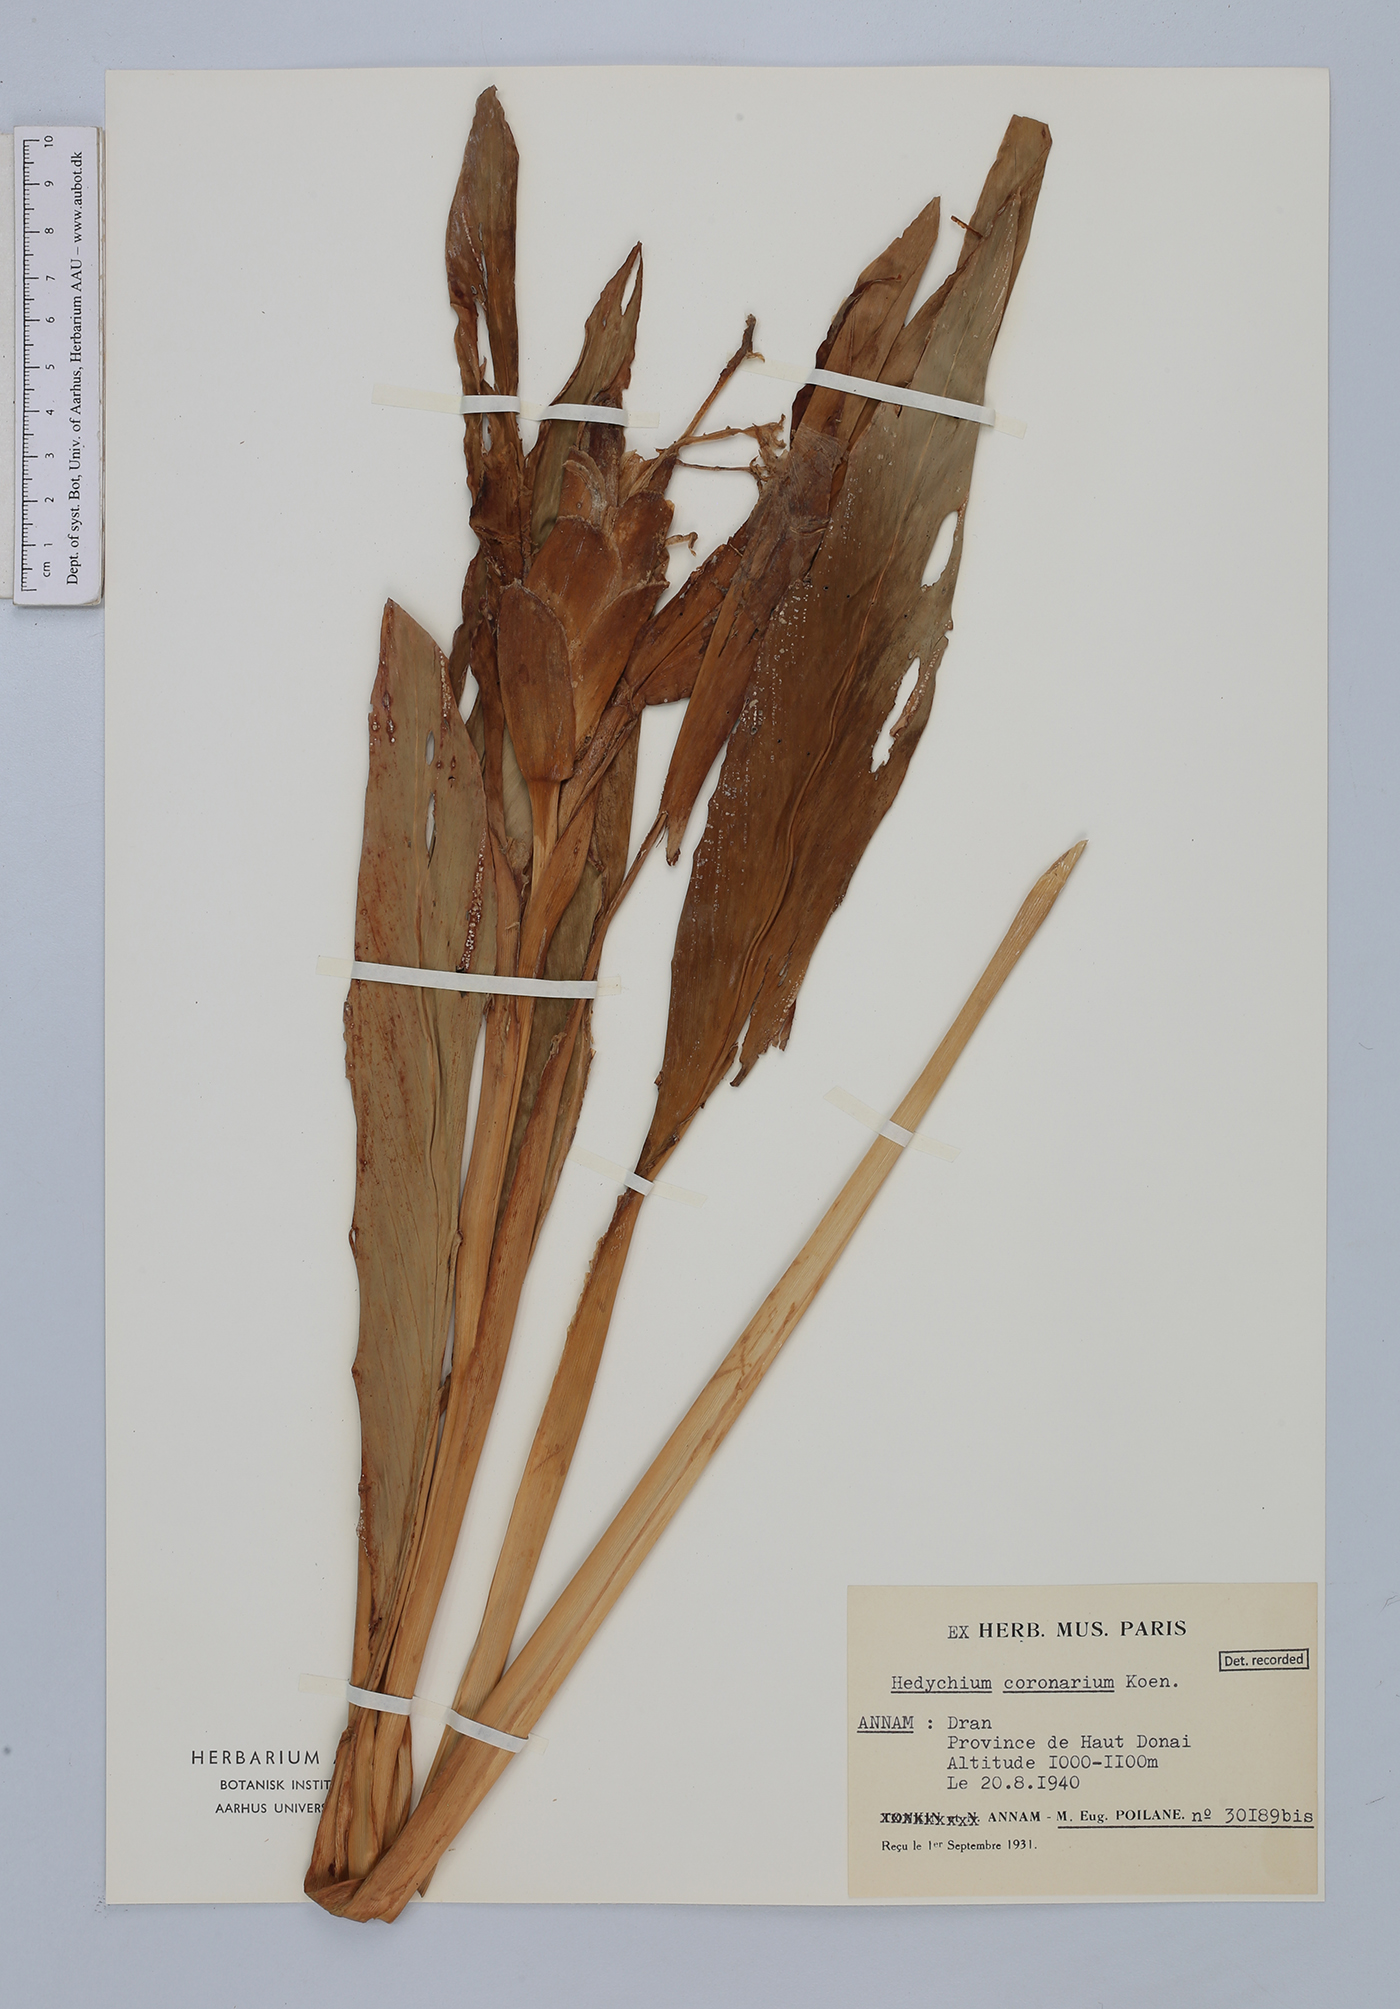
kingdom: Plantae
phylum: Tracheophyta
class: Liliopsida
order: Zingiberales
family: Zingiberaceae
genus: Hedychium
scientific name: Hedychium coronarium
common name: White garland-lily
